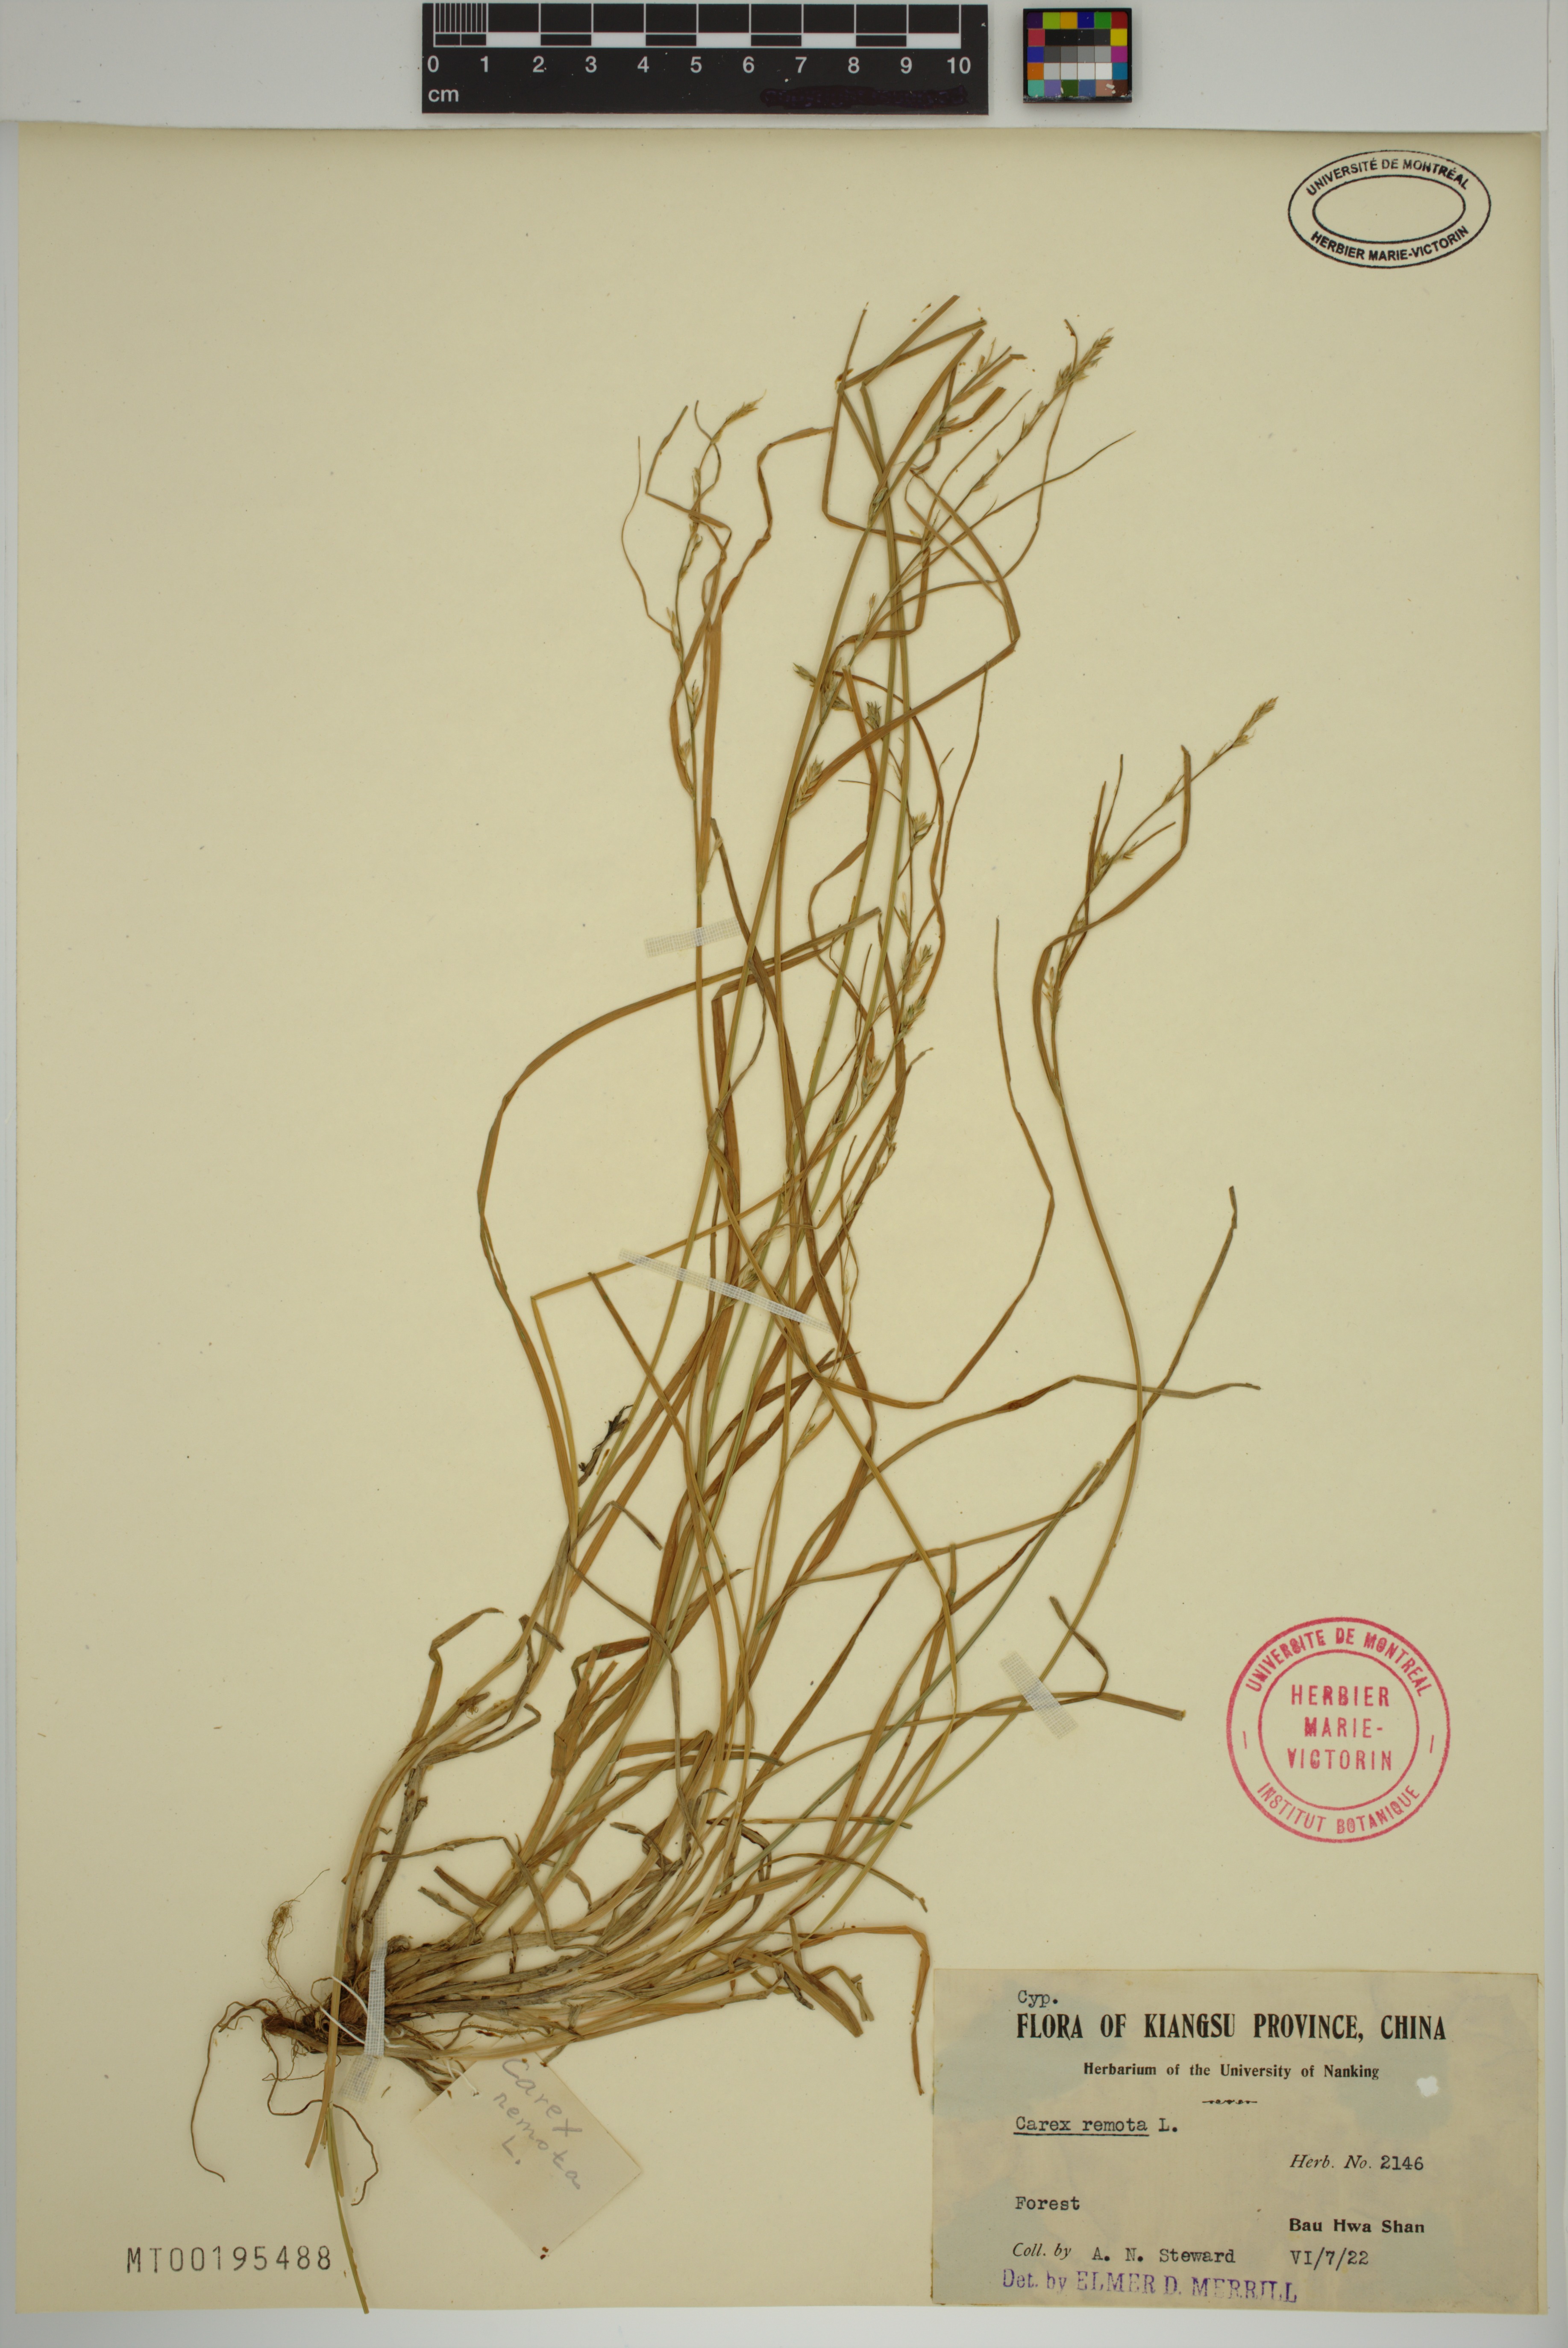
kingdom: Plantae
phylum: Tracheophyta
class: Liliopsida
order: Poales
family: Cyperaceae
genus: Carex
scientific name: Carex remota
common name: Remote sedge
